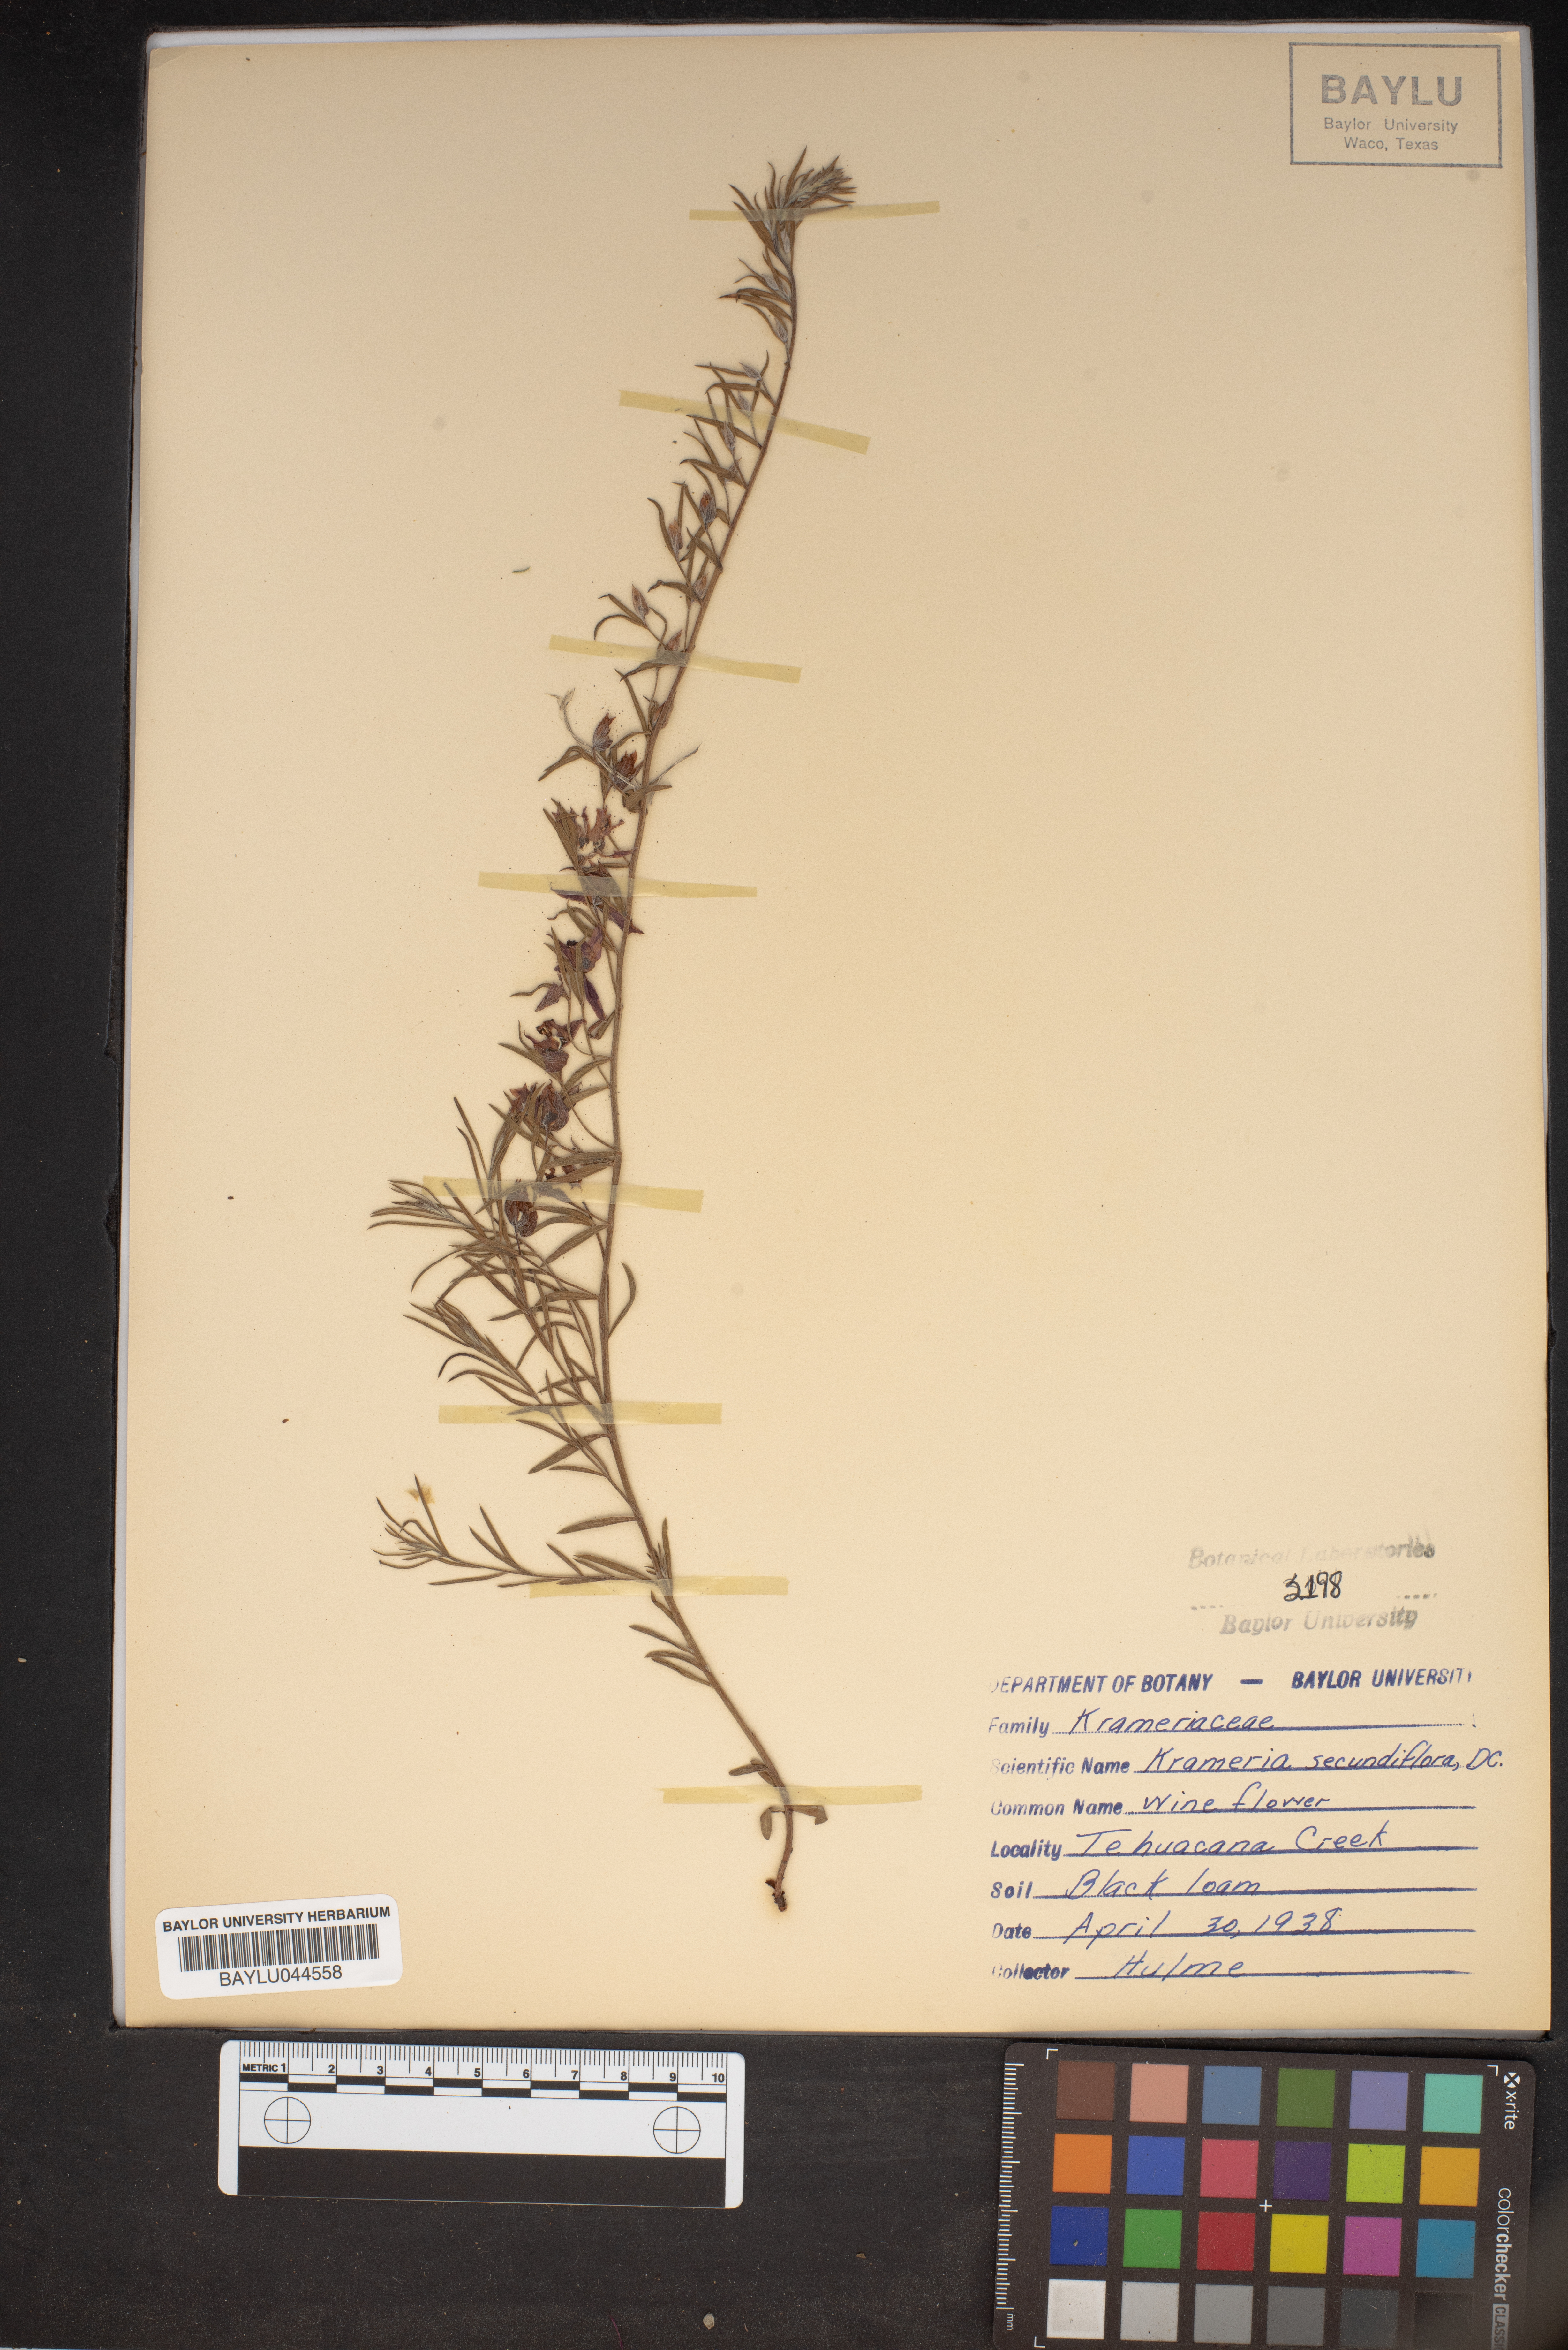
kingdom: Plantae
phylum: Tracheophyta
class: Magnoliopsida
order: Zygophyllales
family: Krameriaceae
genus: Krameria
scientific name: Krameria secundiflora
